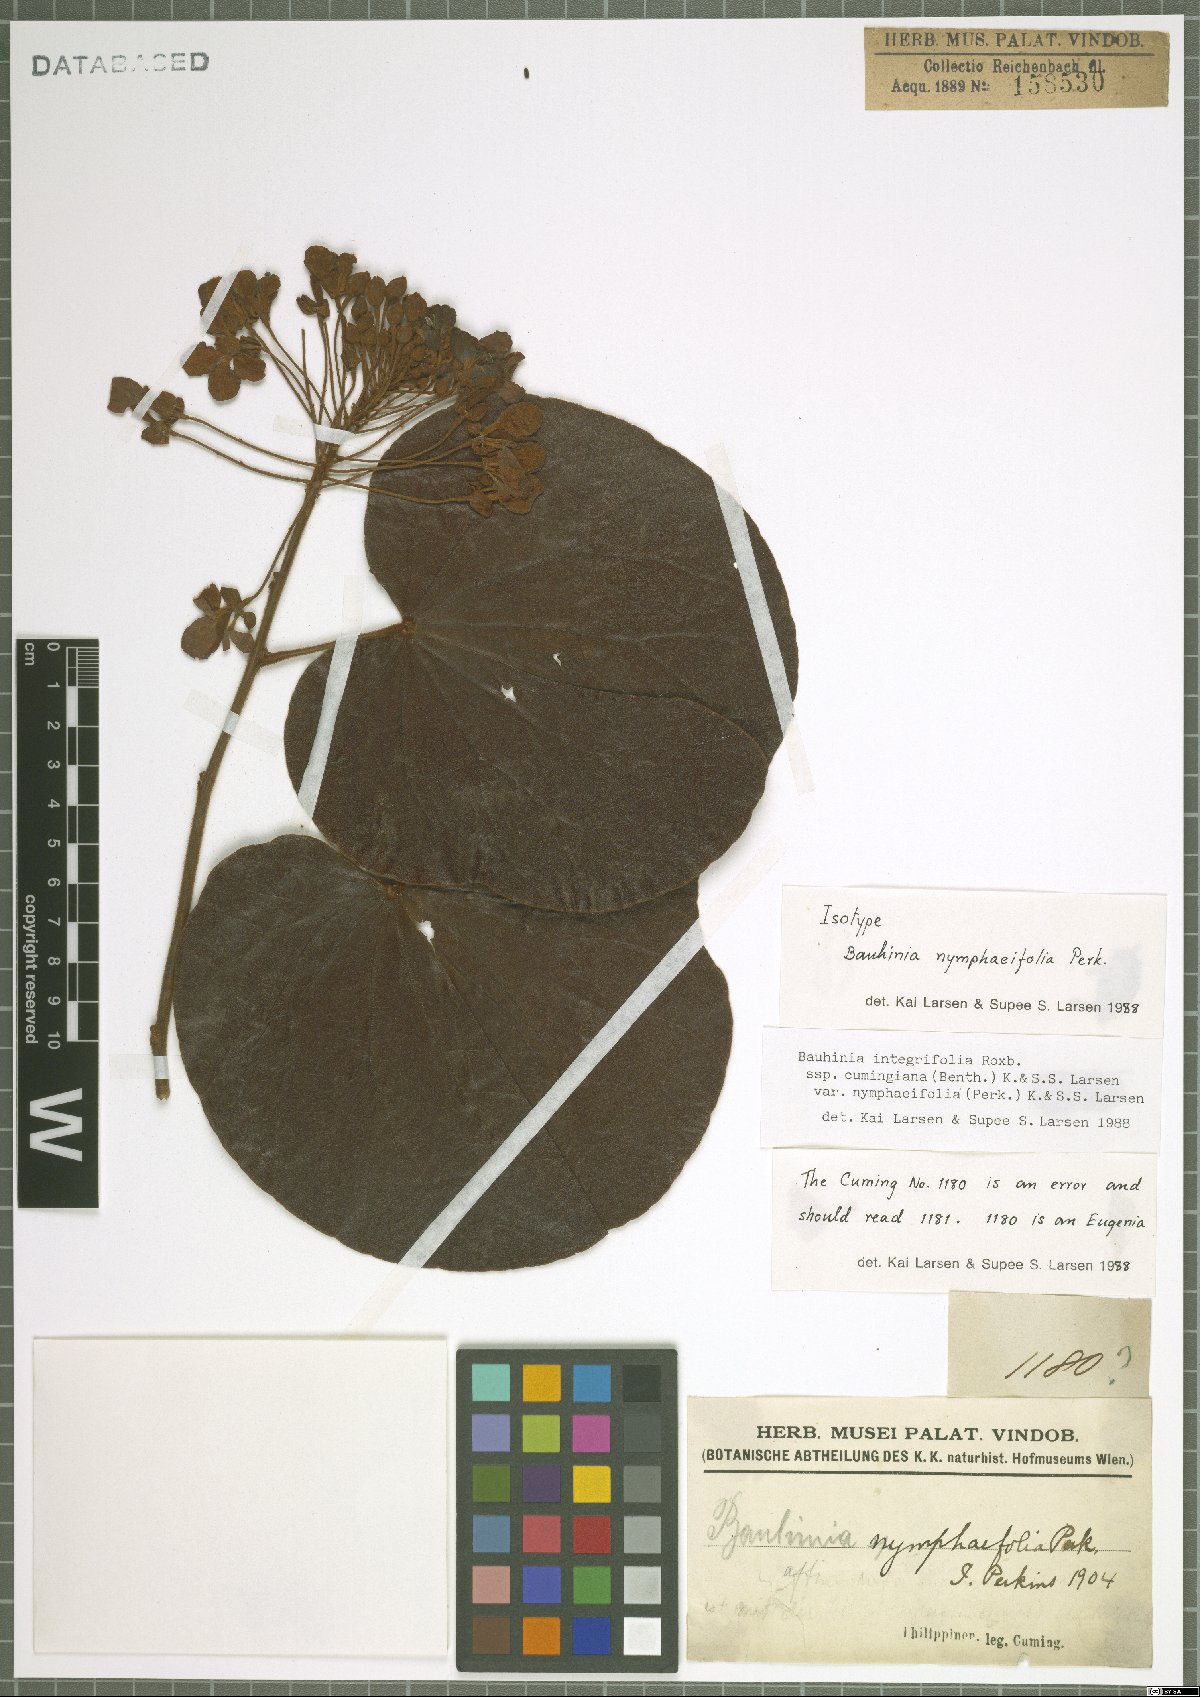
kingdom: Plantae
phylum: Tracheophyta
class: Magnoliopsida
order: Fabales
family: Fabaceae
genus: Phanera
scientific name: Phanera integrifolia
